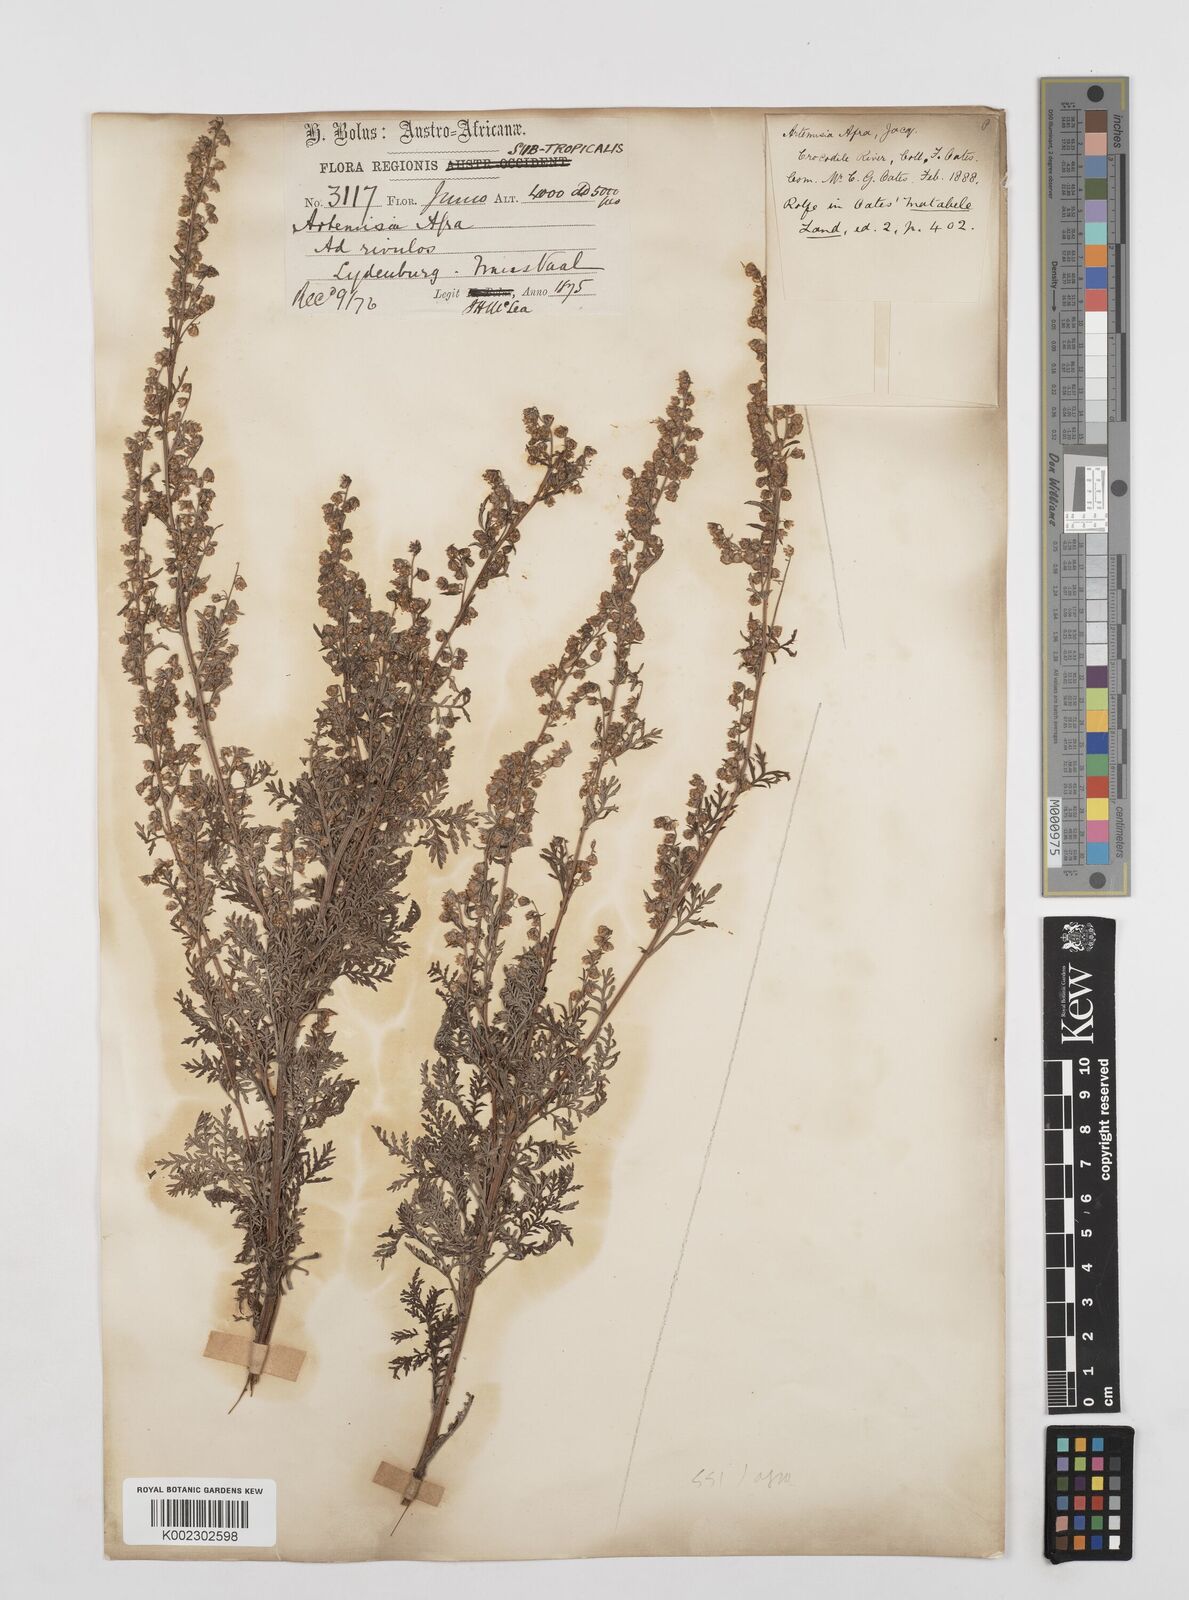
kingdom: Plantae
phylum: Tracheophyta
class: Magnoliopsida
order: Asterales
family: Asteraceae
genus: Artemisia
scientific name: Artemisia afra
